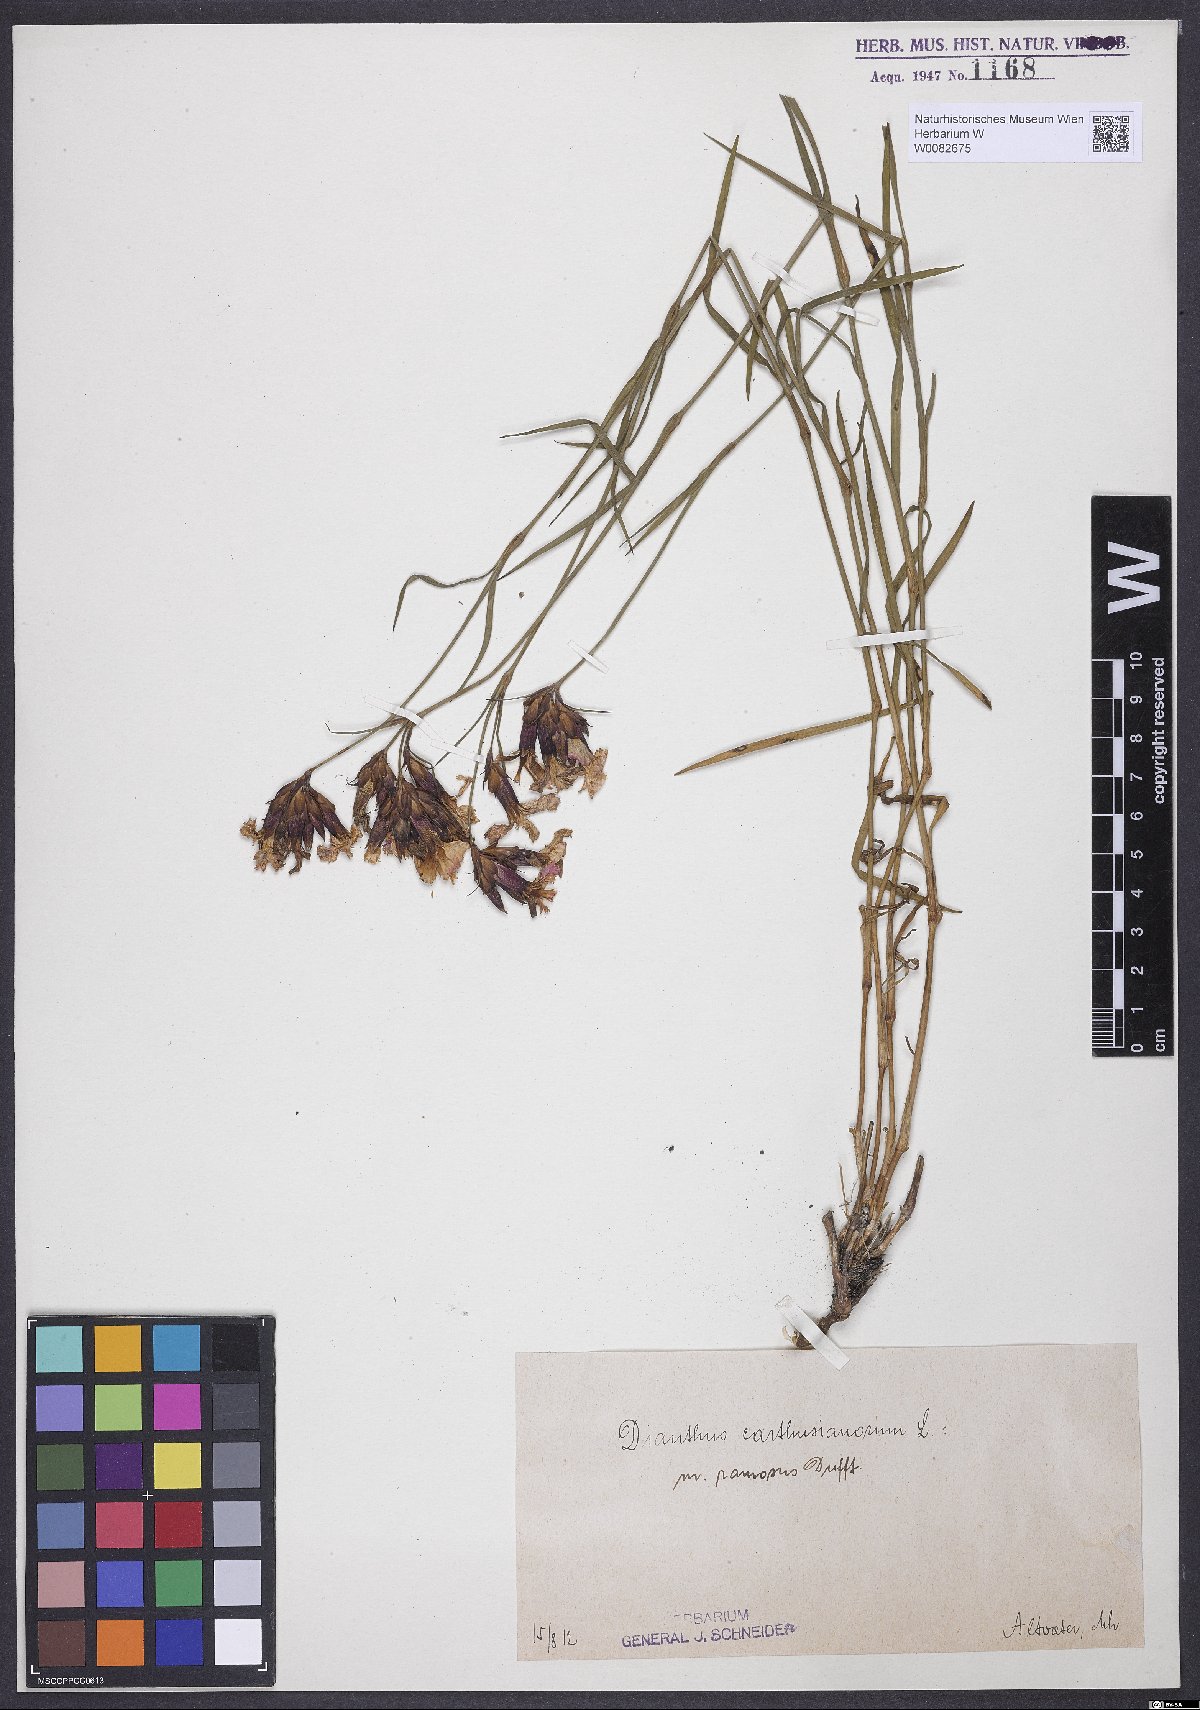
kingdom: Plantae
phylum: Tracheophyta
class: Magnoliopsida
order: Caryophyllales
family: Caryophyllaceae
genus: Dianthus
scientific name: Dianthus carthusianorum
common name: Carthusian pink
